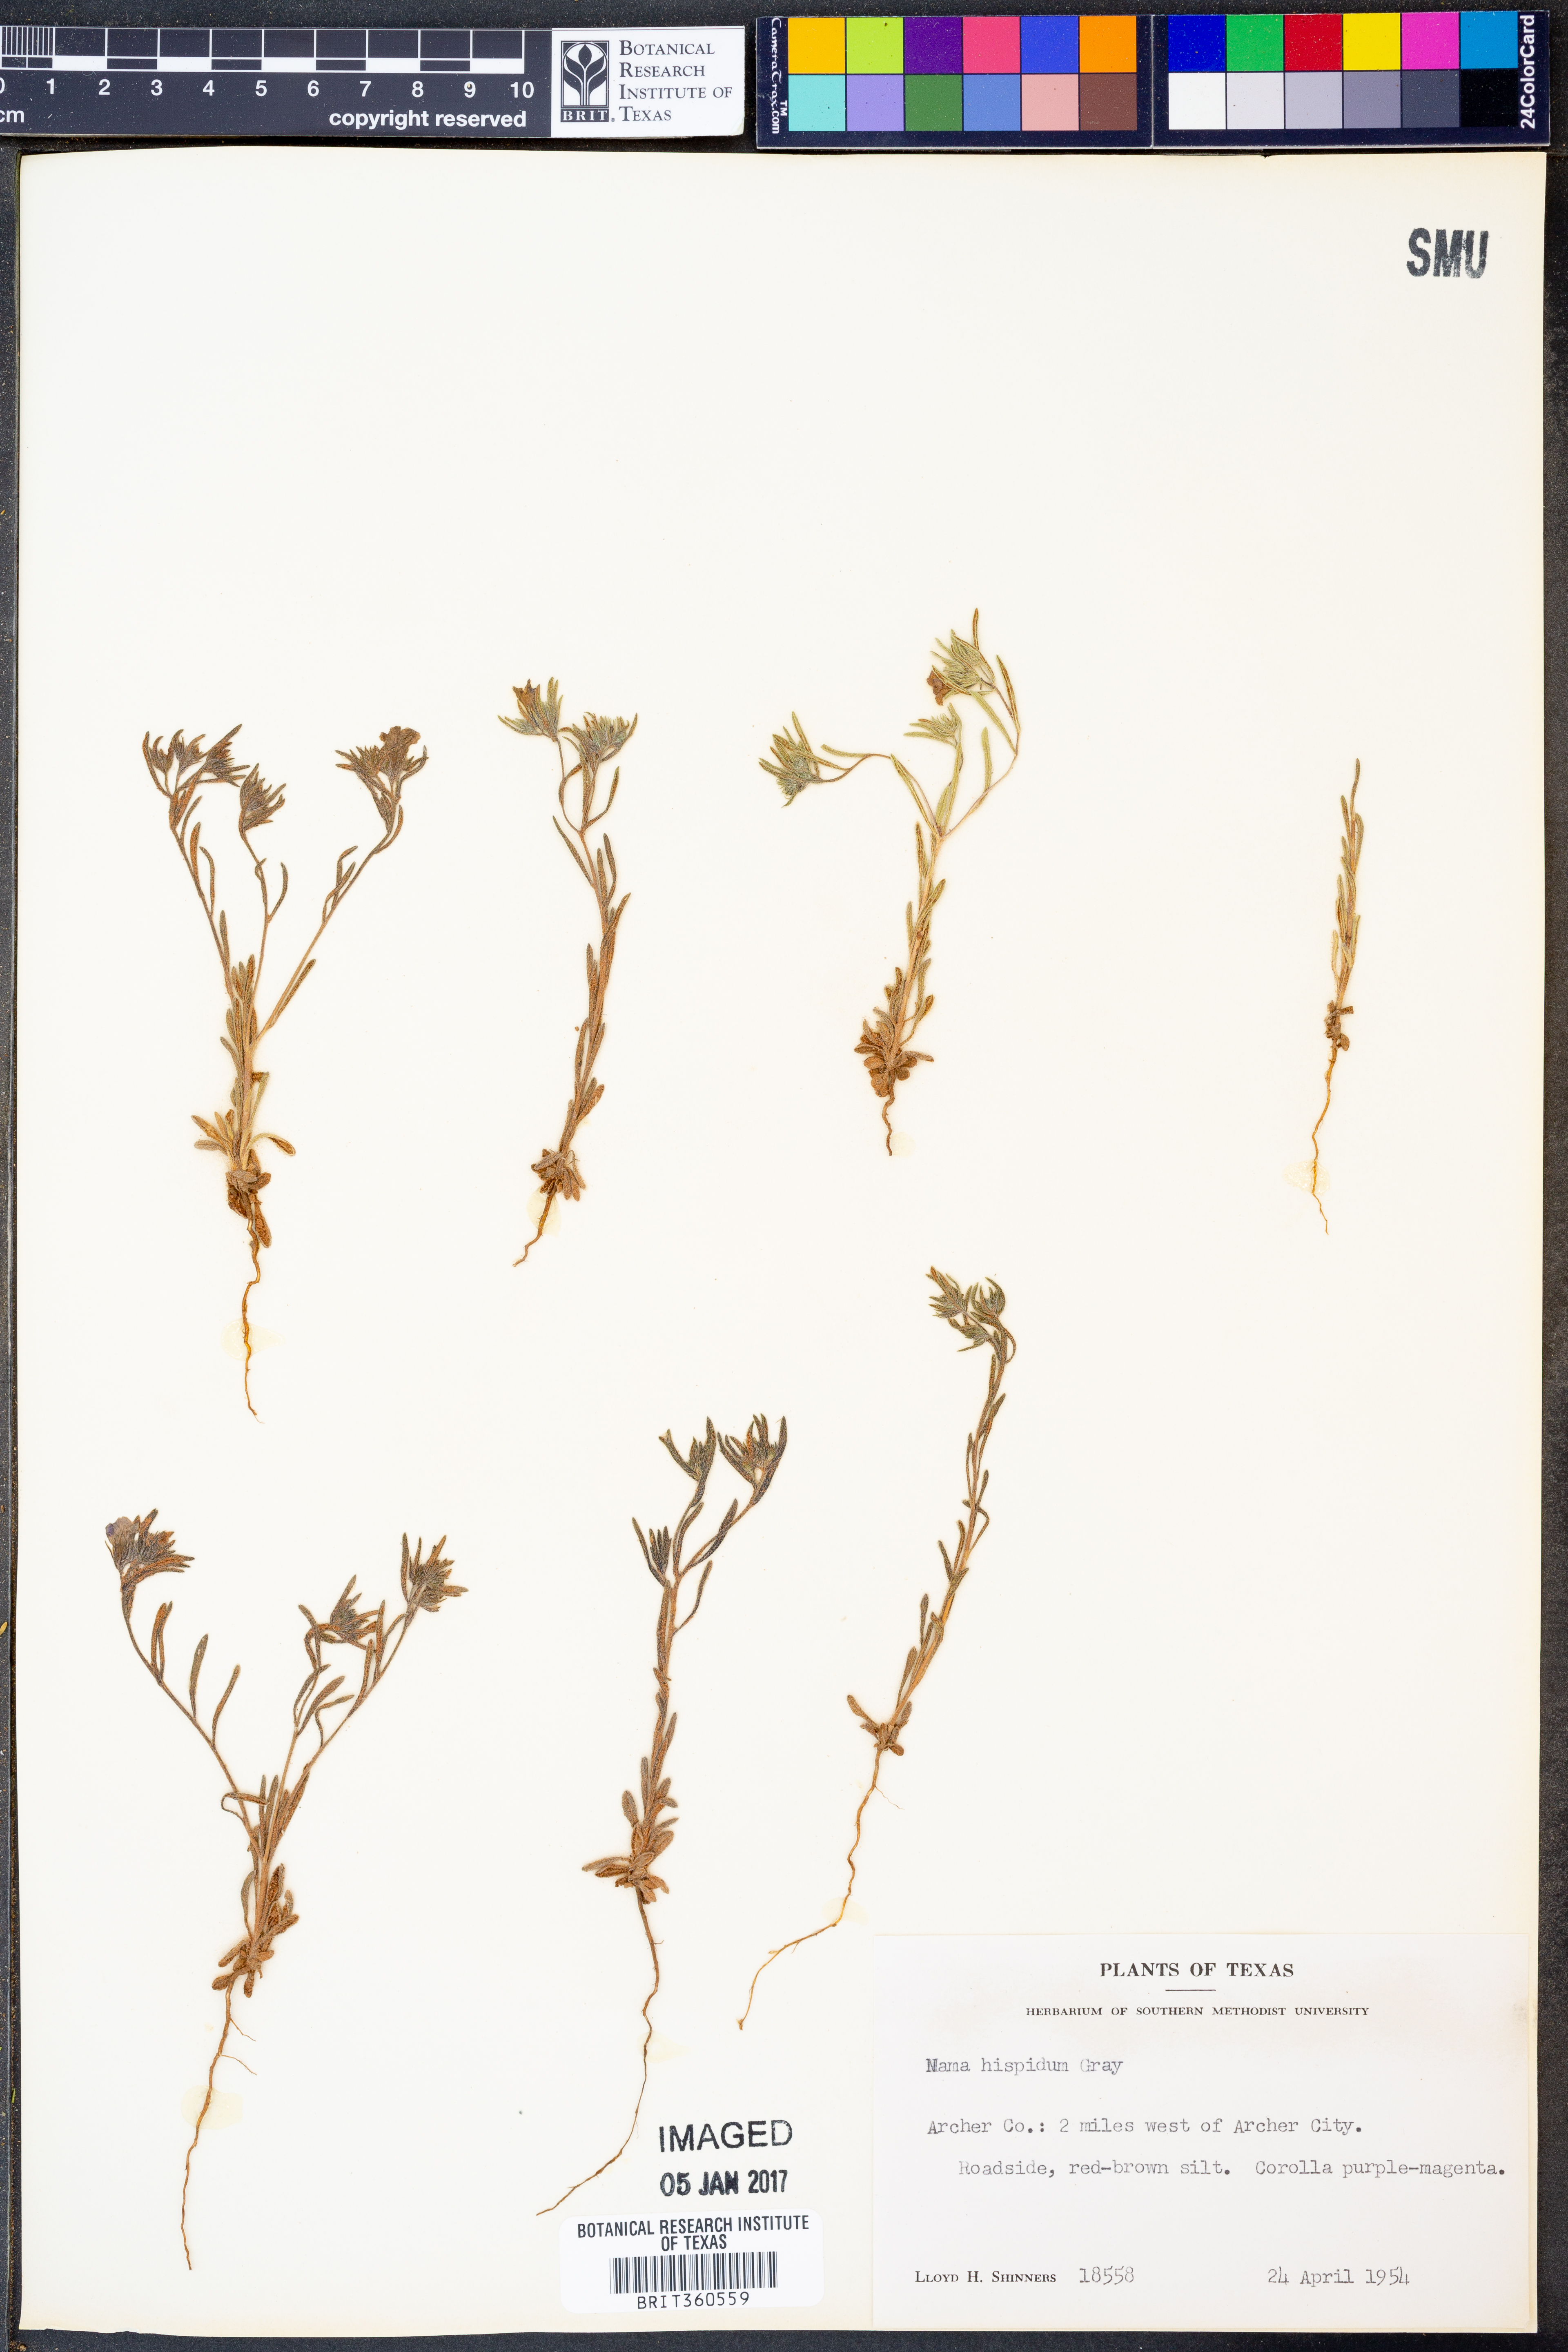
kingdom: Plantae
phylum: Tracheophyta
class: Magnoliopsida
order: Boraginales
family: Namaceae
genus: Nama
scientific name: Nama hispida
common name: Bristly nama
